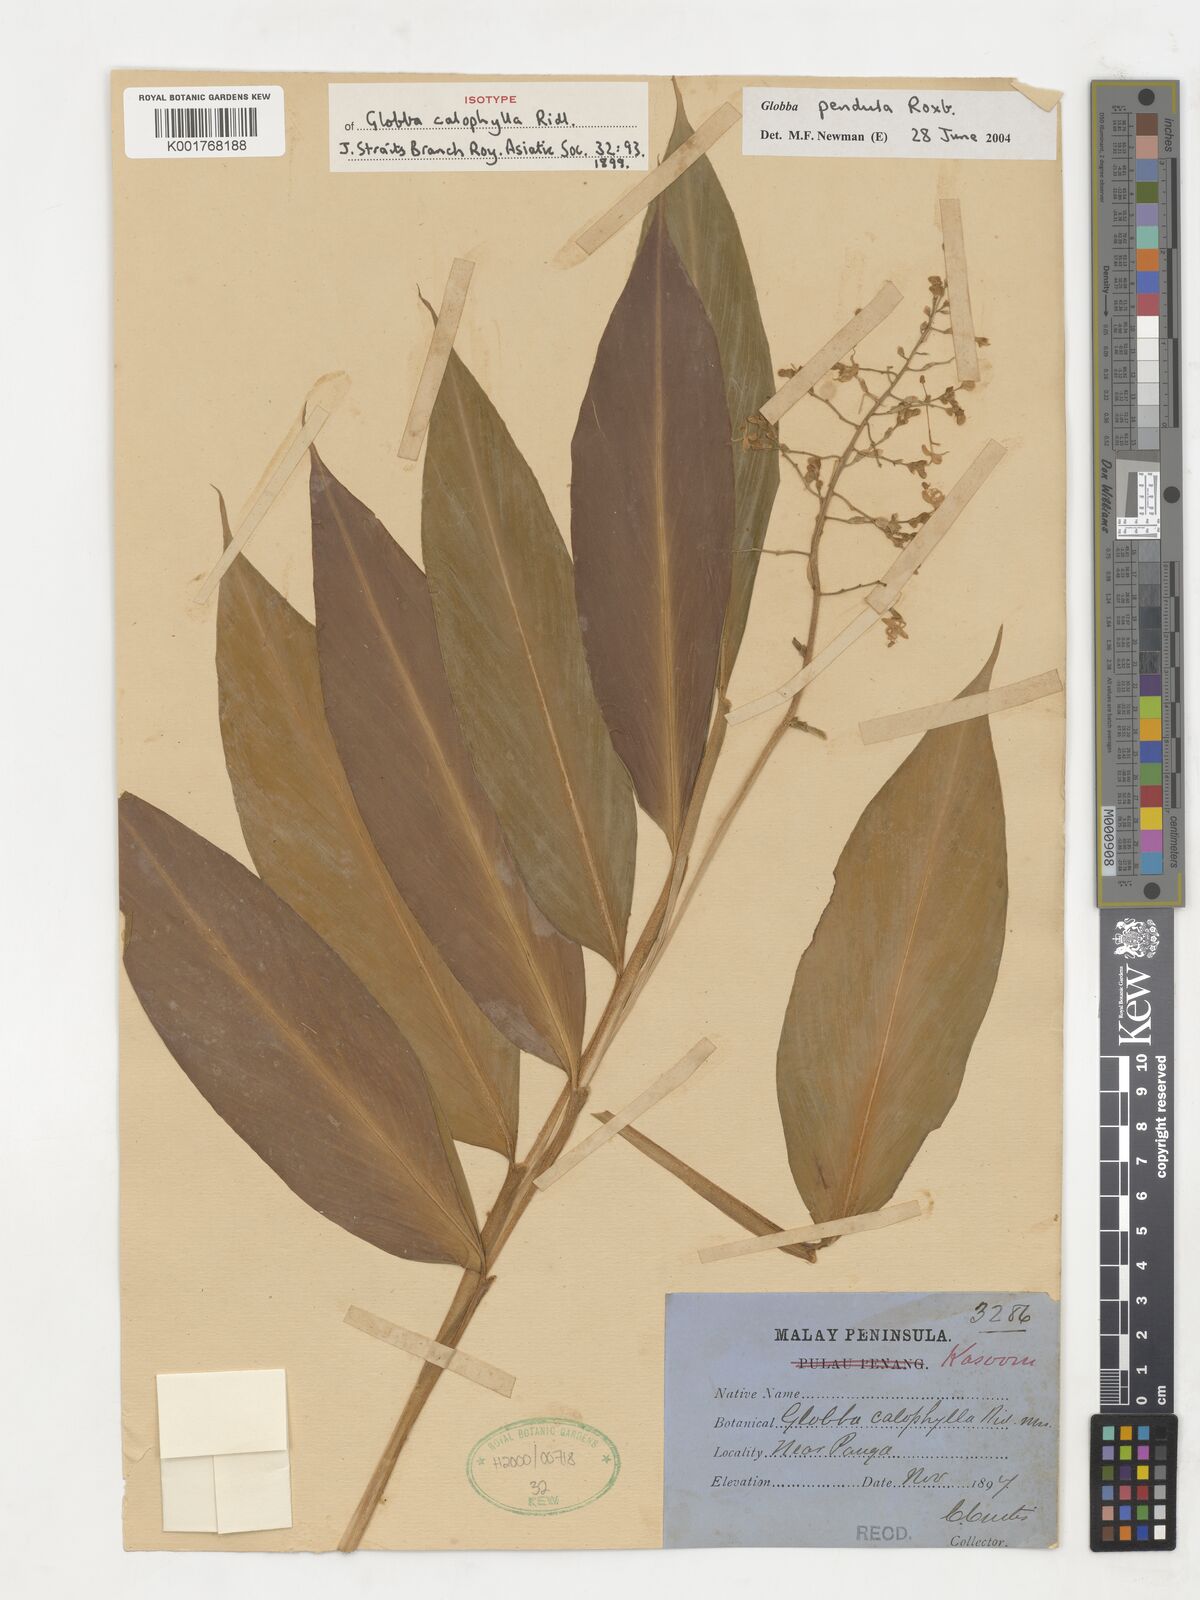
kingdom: Plantae
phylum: Tracheophyta
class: Liliopsida
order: Zingiberales
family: Zingiberaceae
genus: Globba
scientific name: Globba pendula
